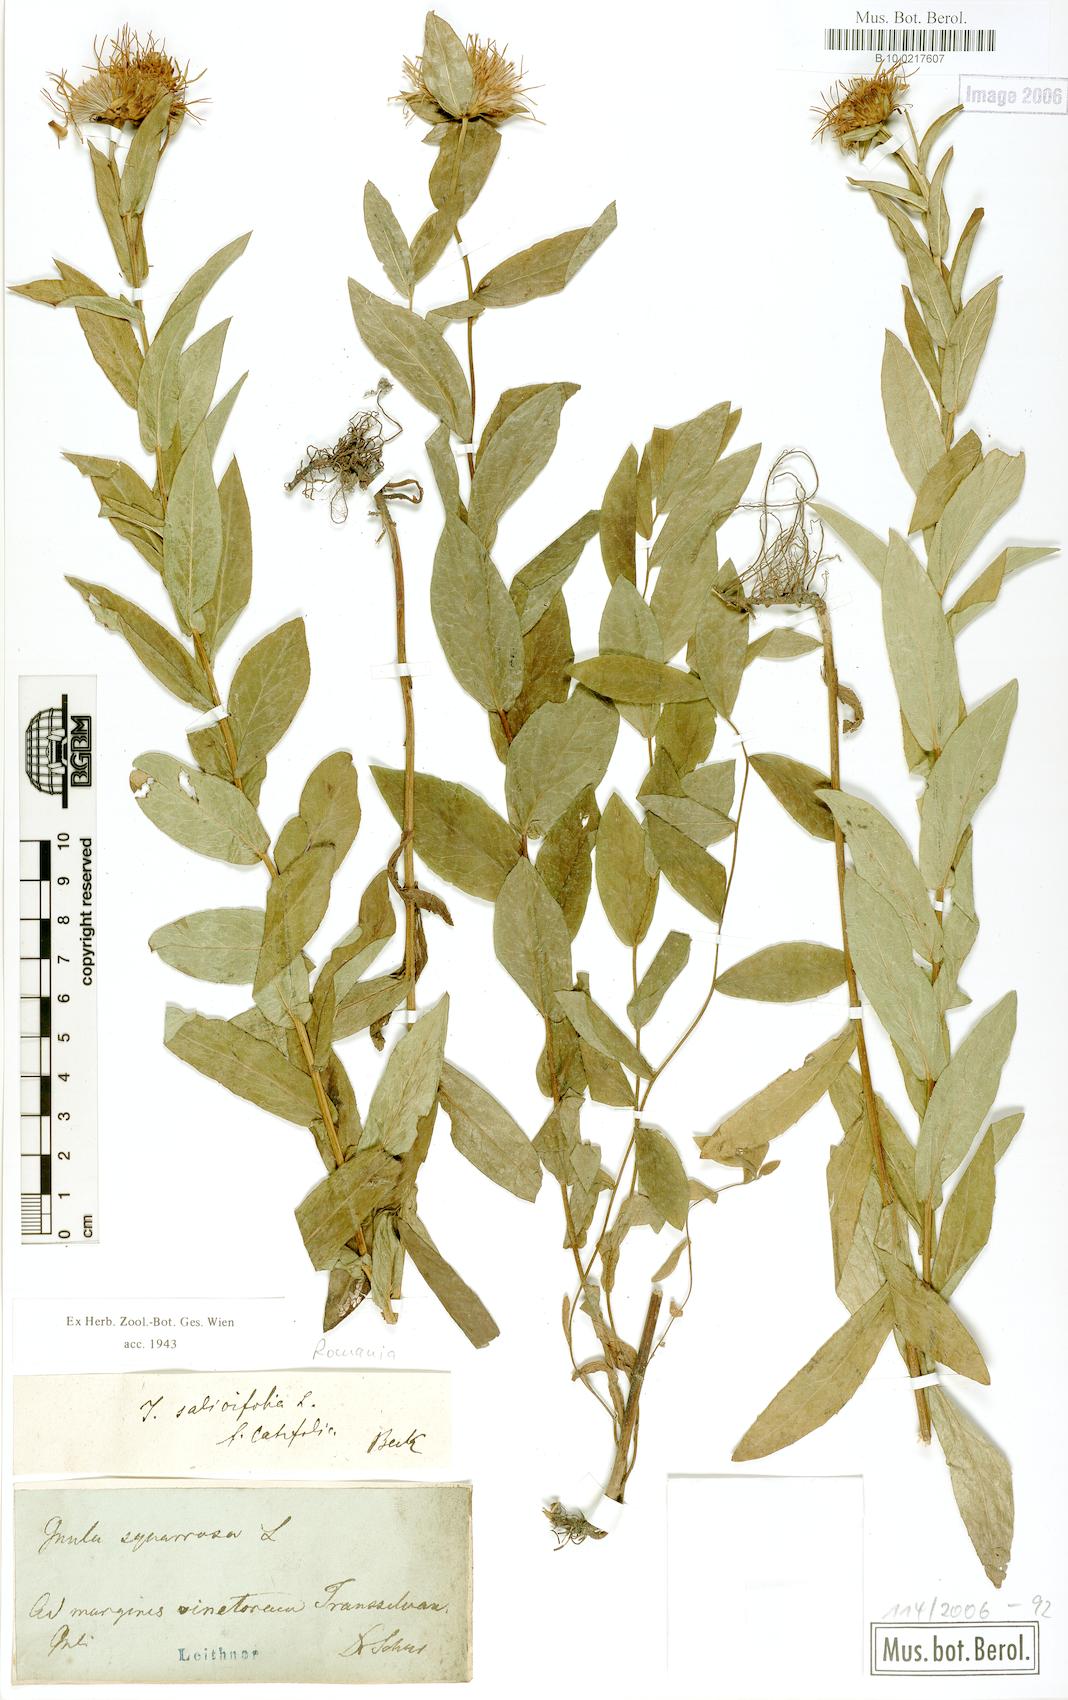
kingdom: Plantae
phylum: Tracheophyta
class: Magnoliopsida
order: Asterales
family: Asteraceae
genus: Pentanema
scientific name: Pentanema salicinum
